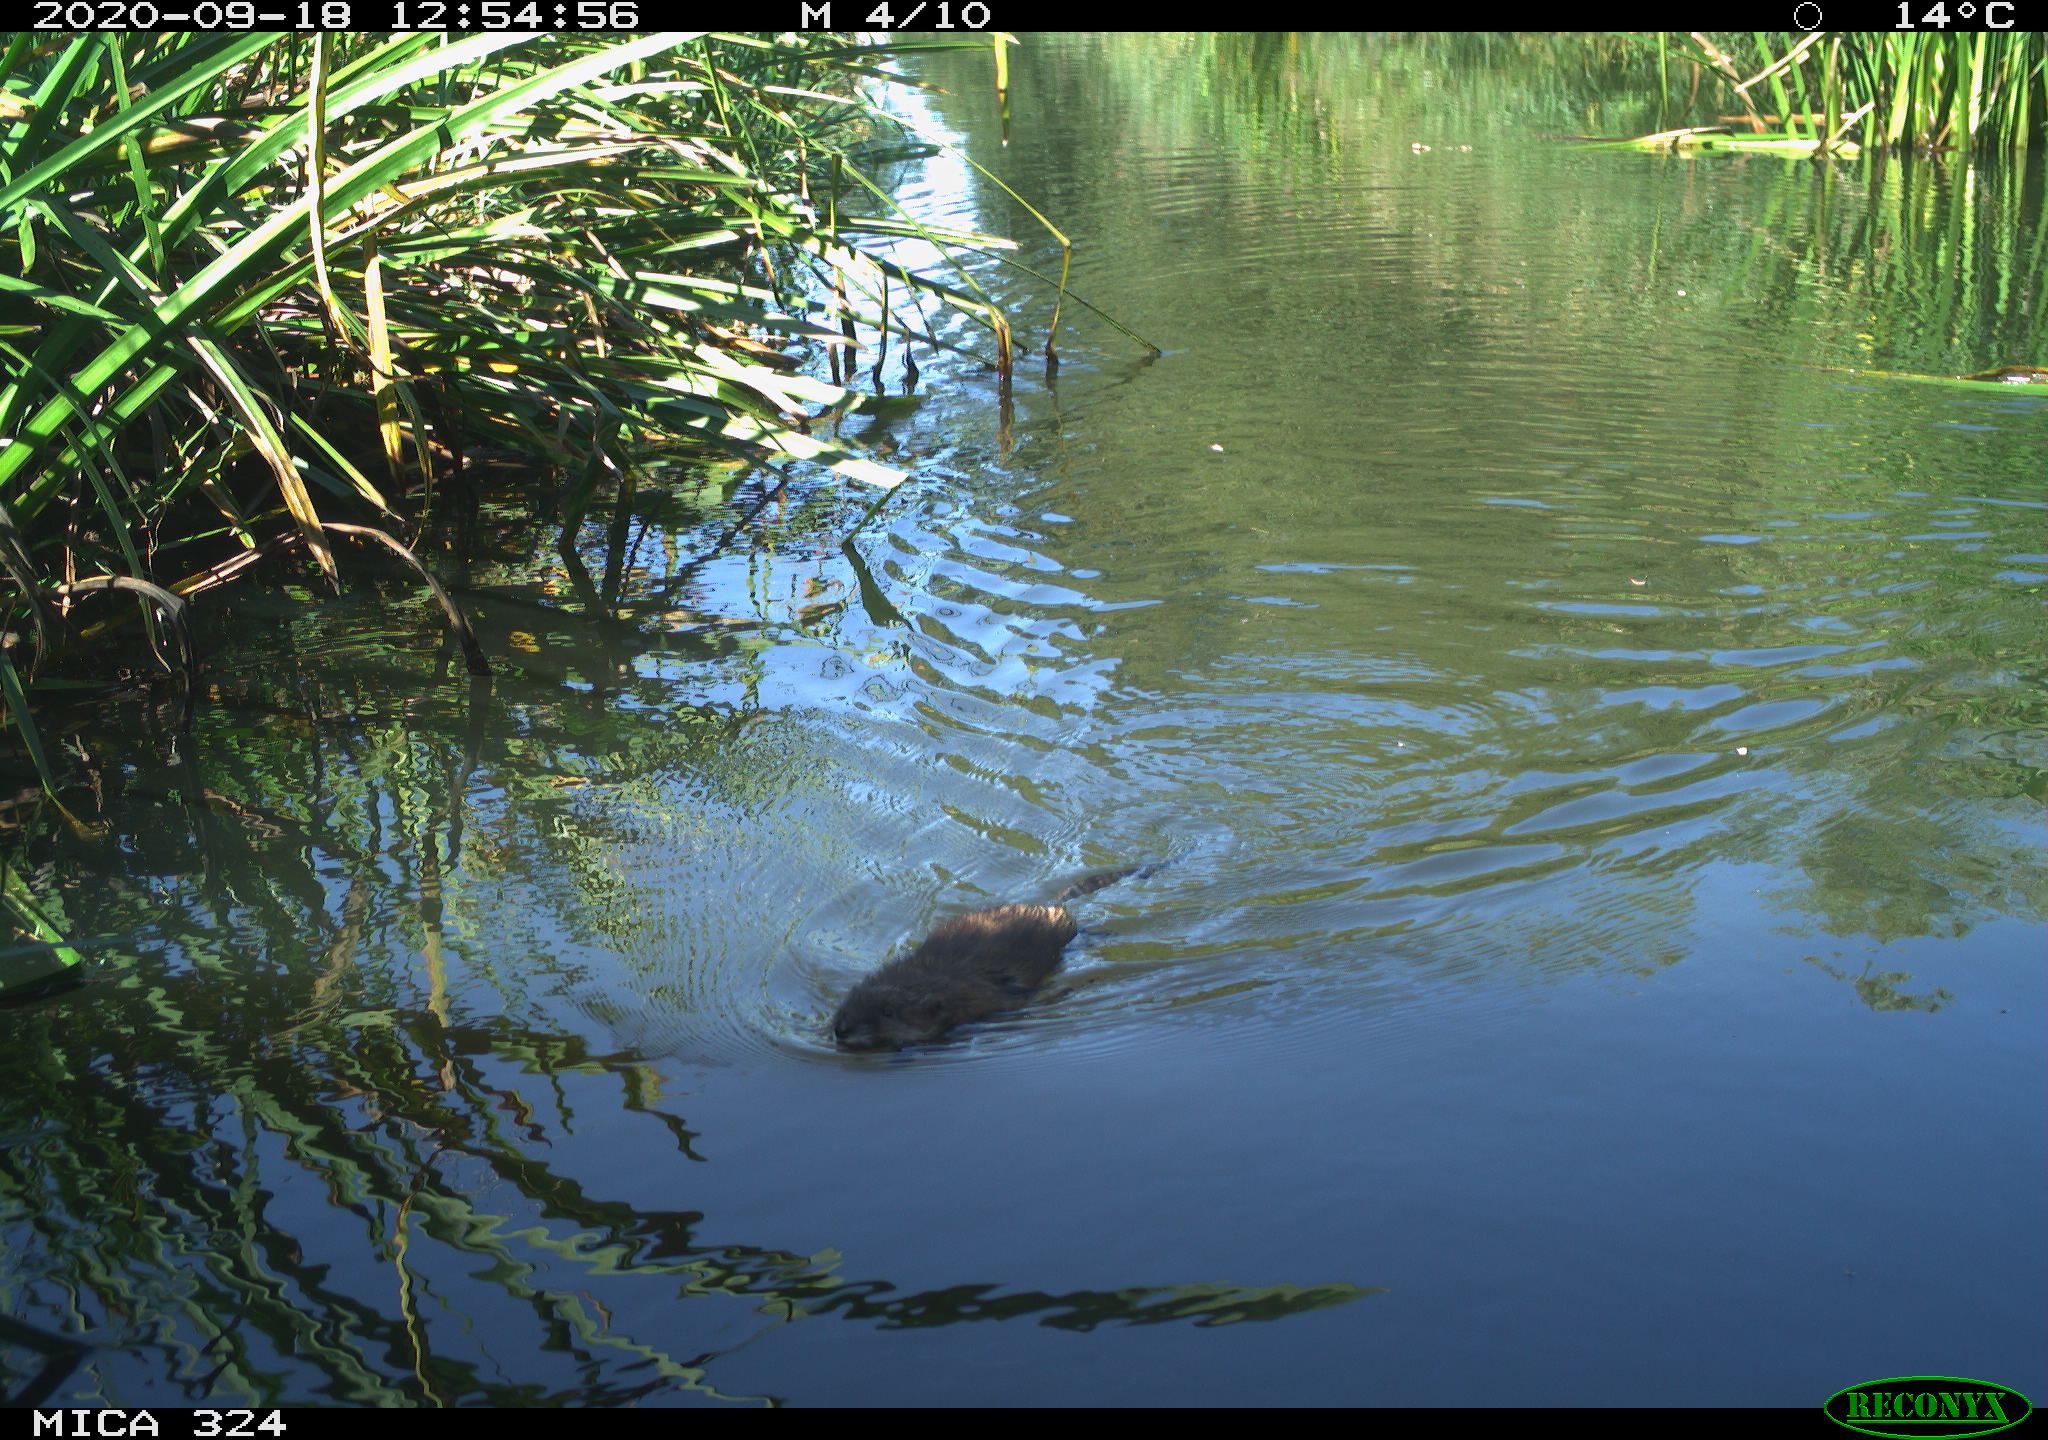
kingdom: Animalia
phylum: Chordata
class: Mammalia
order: Rodentia
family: Cricetidae
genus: Ondatra
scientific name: Ondatra zibethicus
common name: Muskrat
